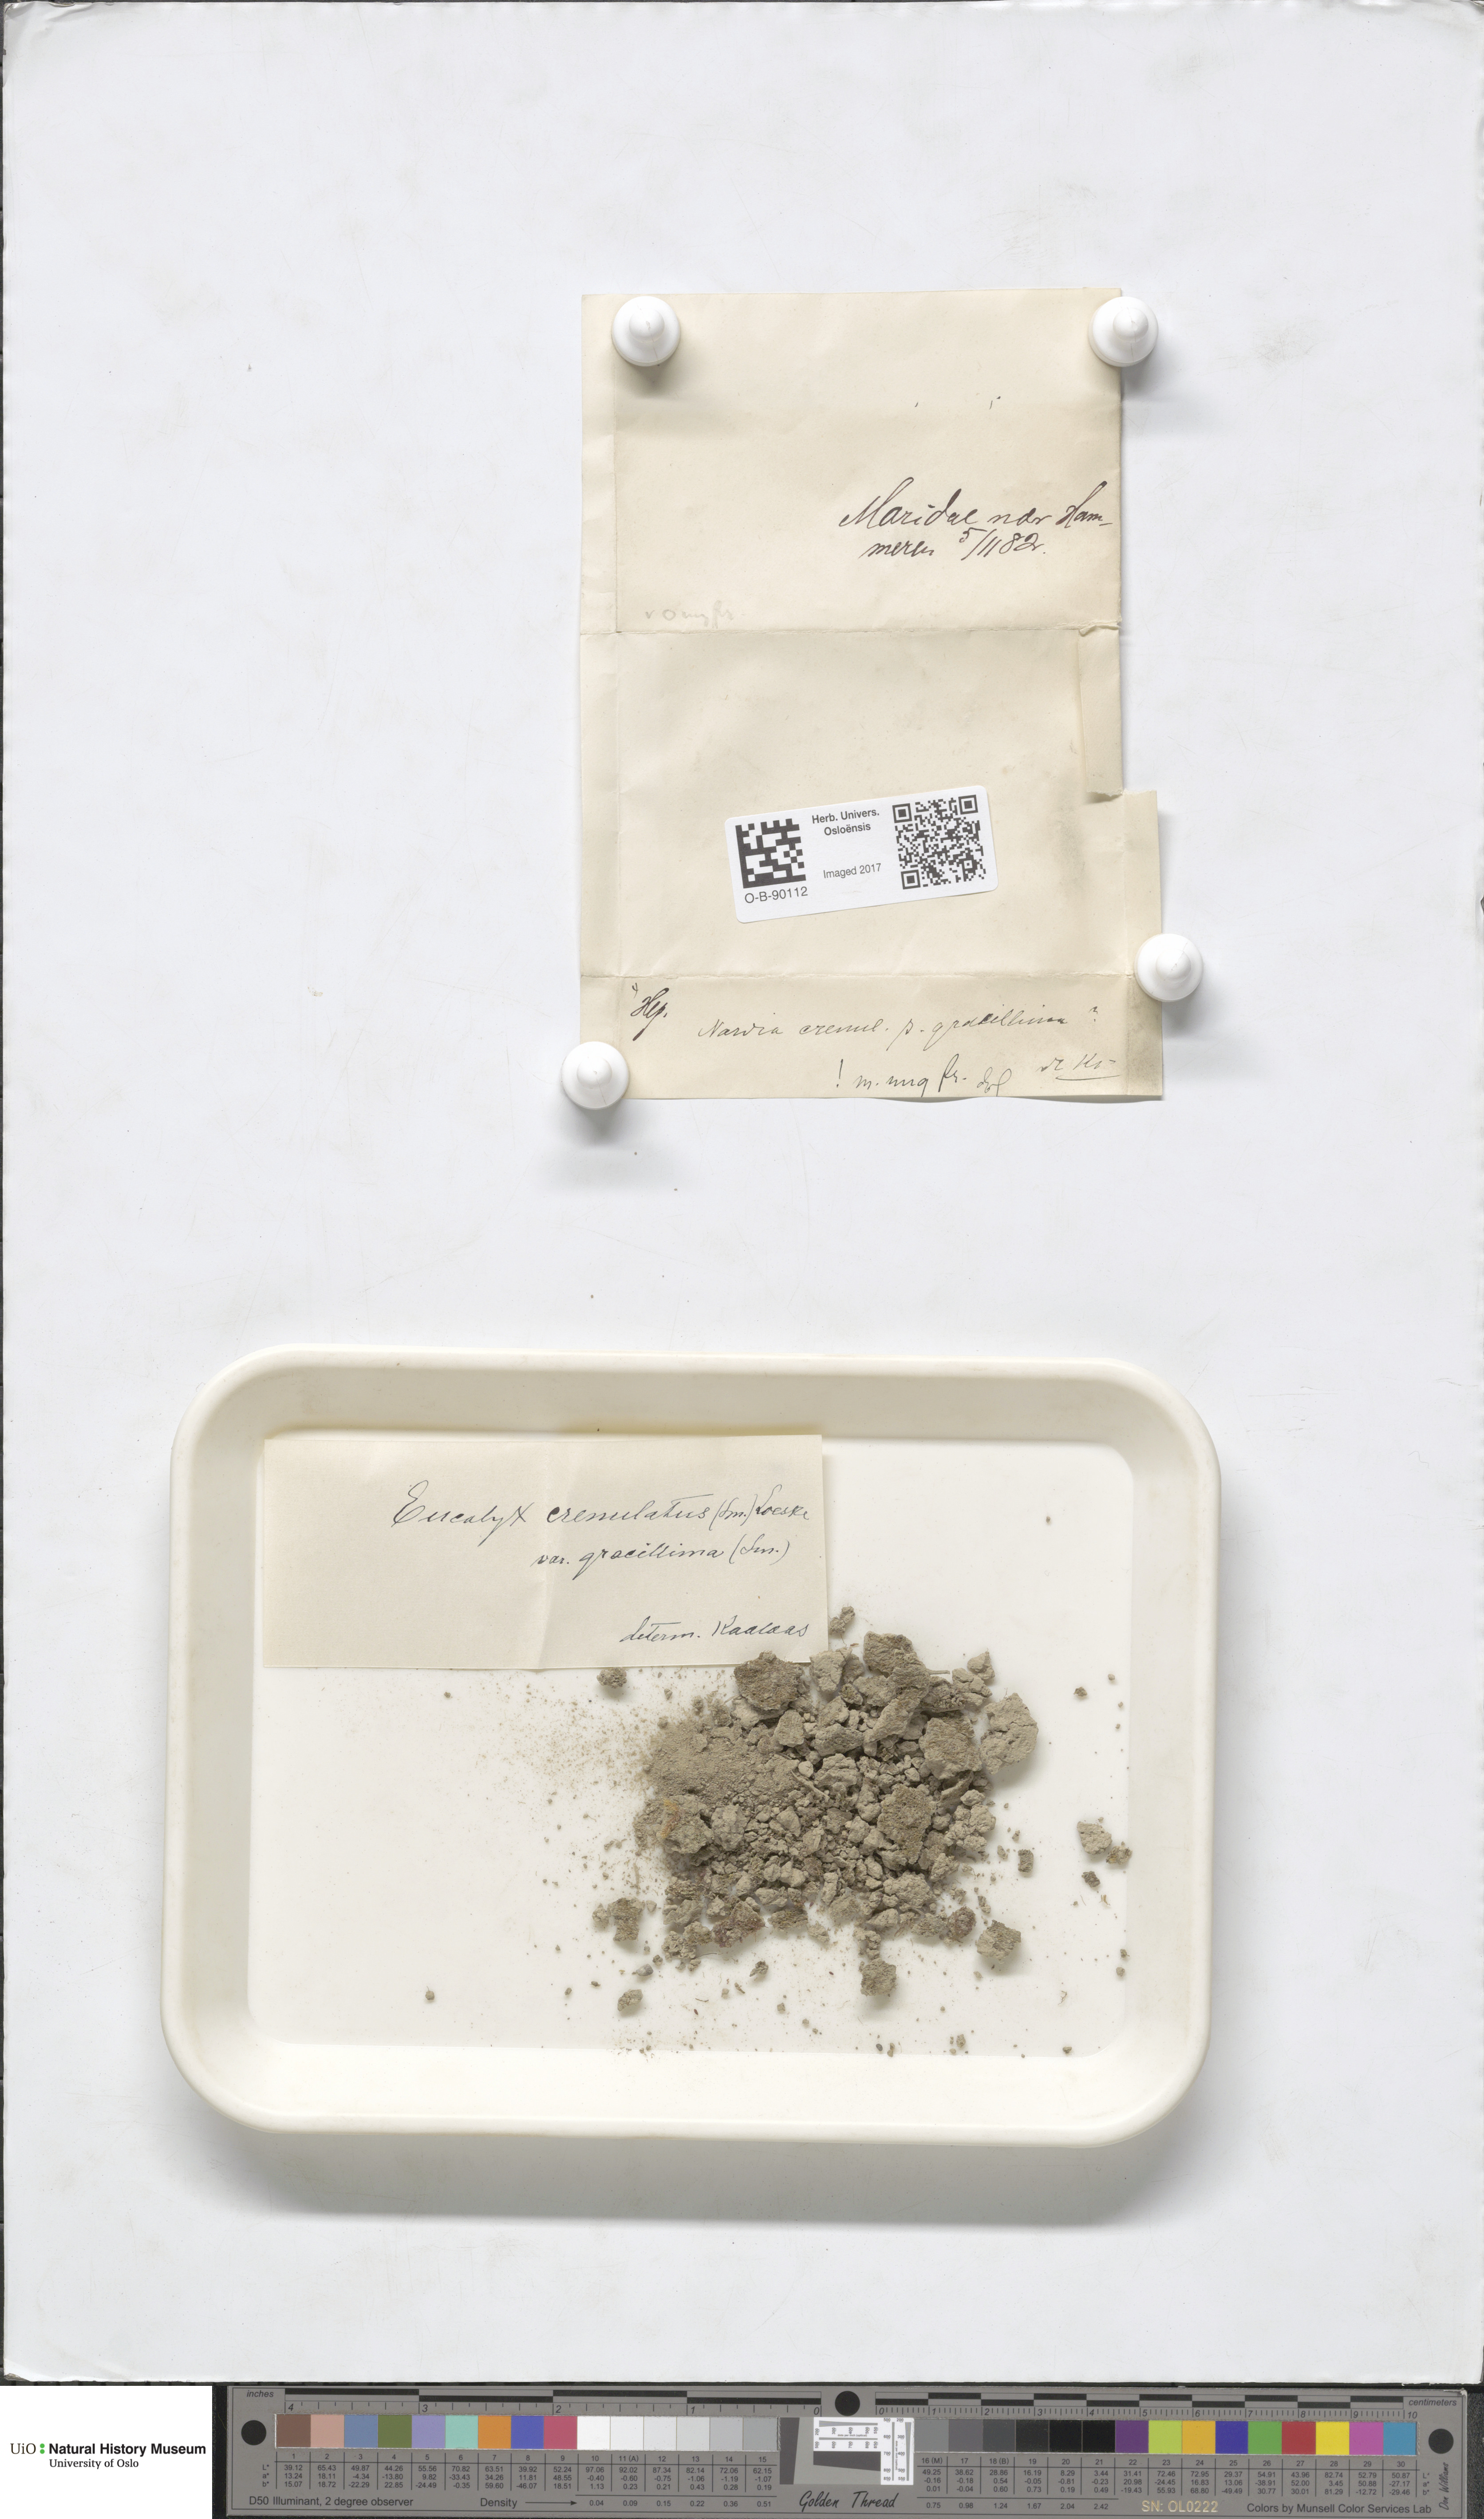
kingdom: Plantae
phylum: Marchantiophyta
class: Jungermanniopsida
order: Jungermanniales
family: Solenostomataceae
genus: Solenostoma
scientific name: Solenostoma gracillimum
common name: Crenulated flapwort
